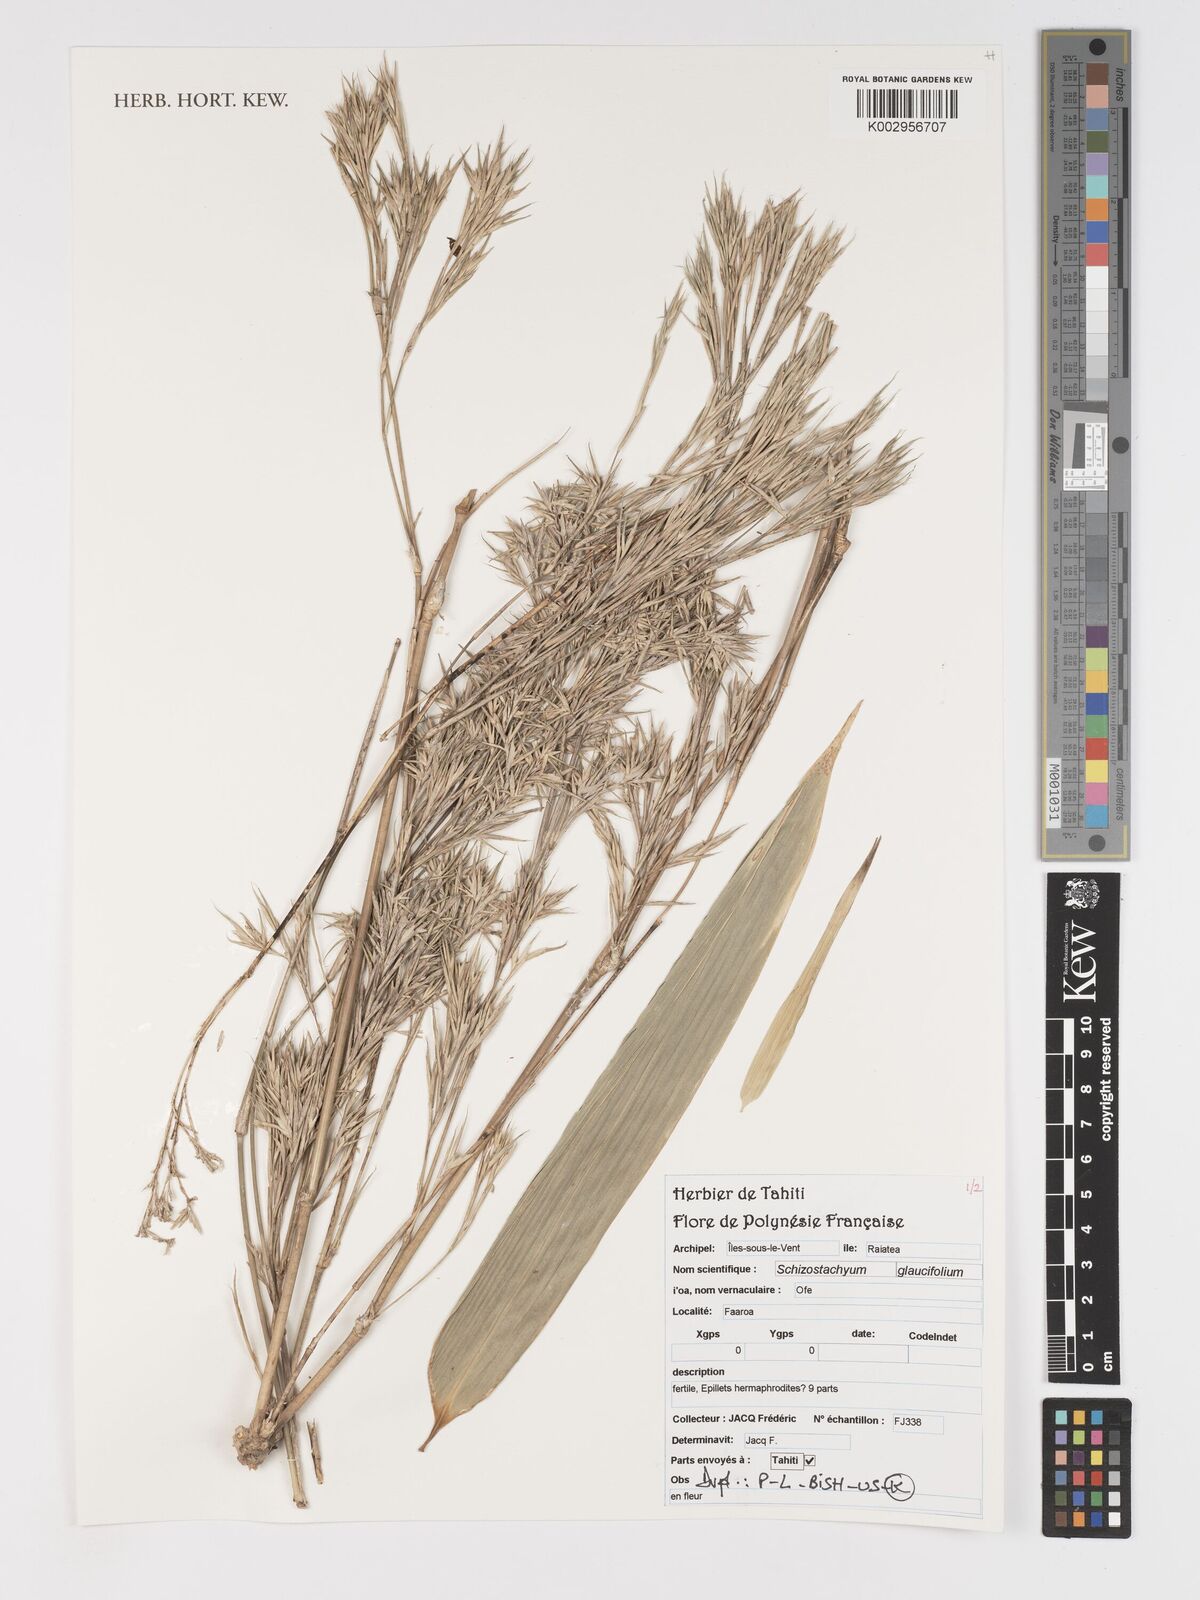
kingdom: Plantae
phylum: Tracheophyta
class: Liliopsida
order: Poales
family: Poaceae
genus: Schizostachyum
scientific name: Schizostachyum glaucifolium
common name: Polynesian 'ohe
